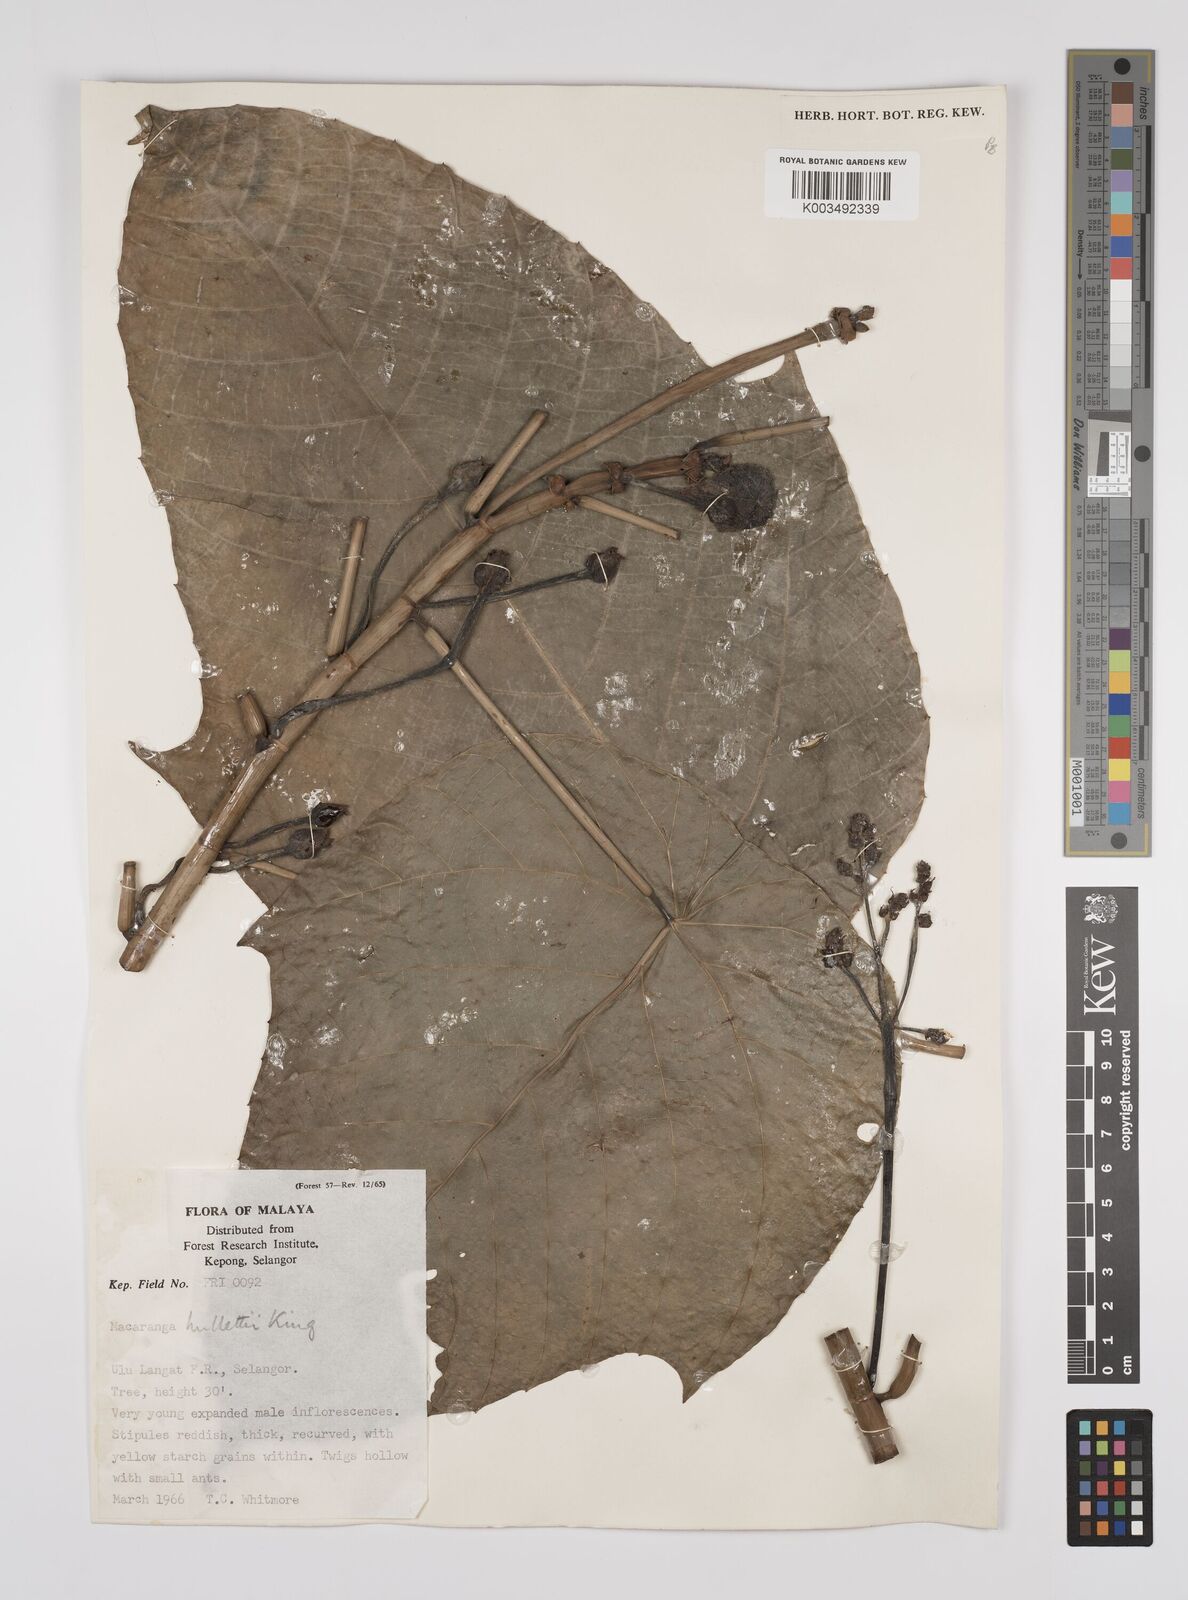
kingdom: Plantae
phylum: Tracheophyta
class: Magnoliopsida
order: Malpighiales
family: Euphorbiaceae
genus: Macaranga
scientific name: Macaranga hullettii
